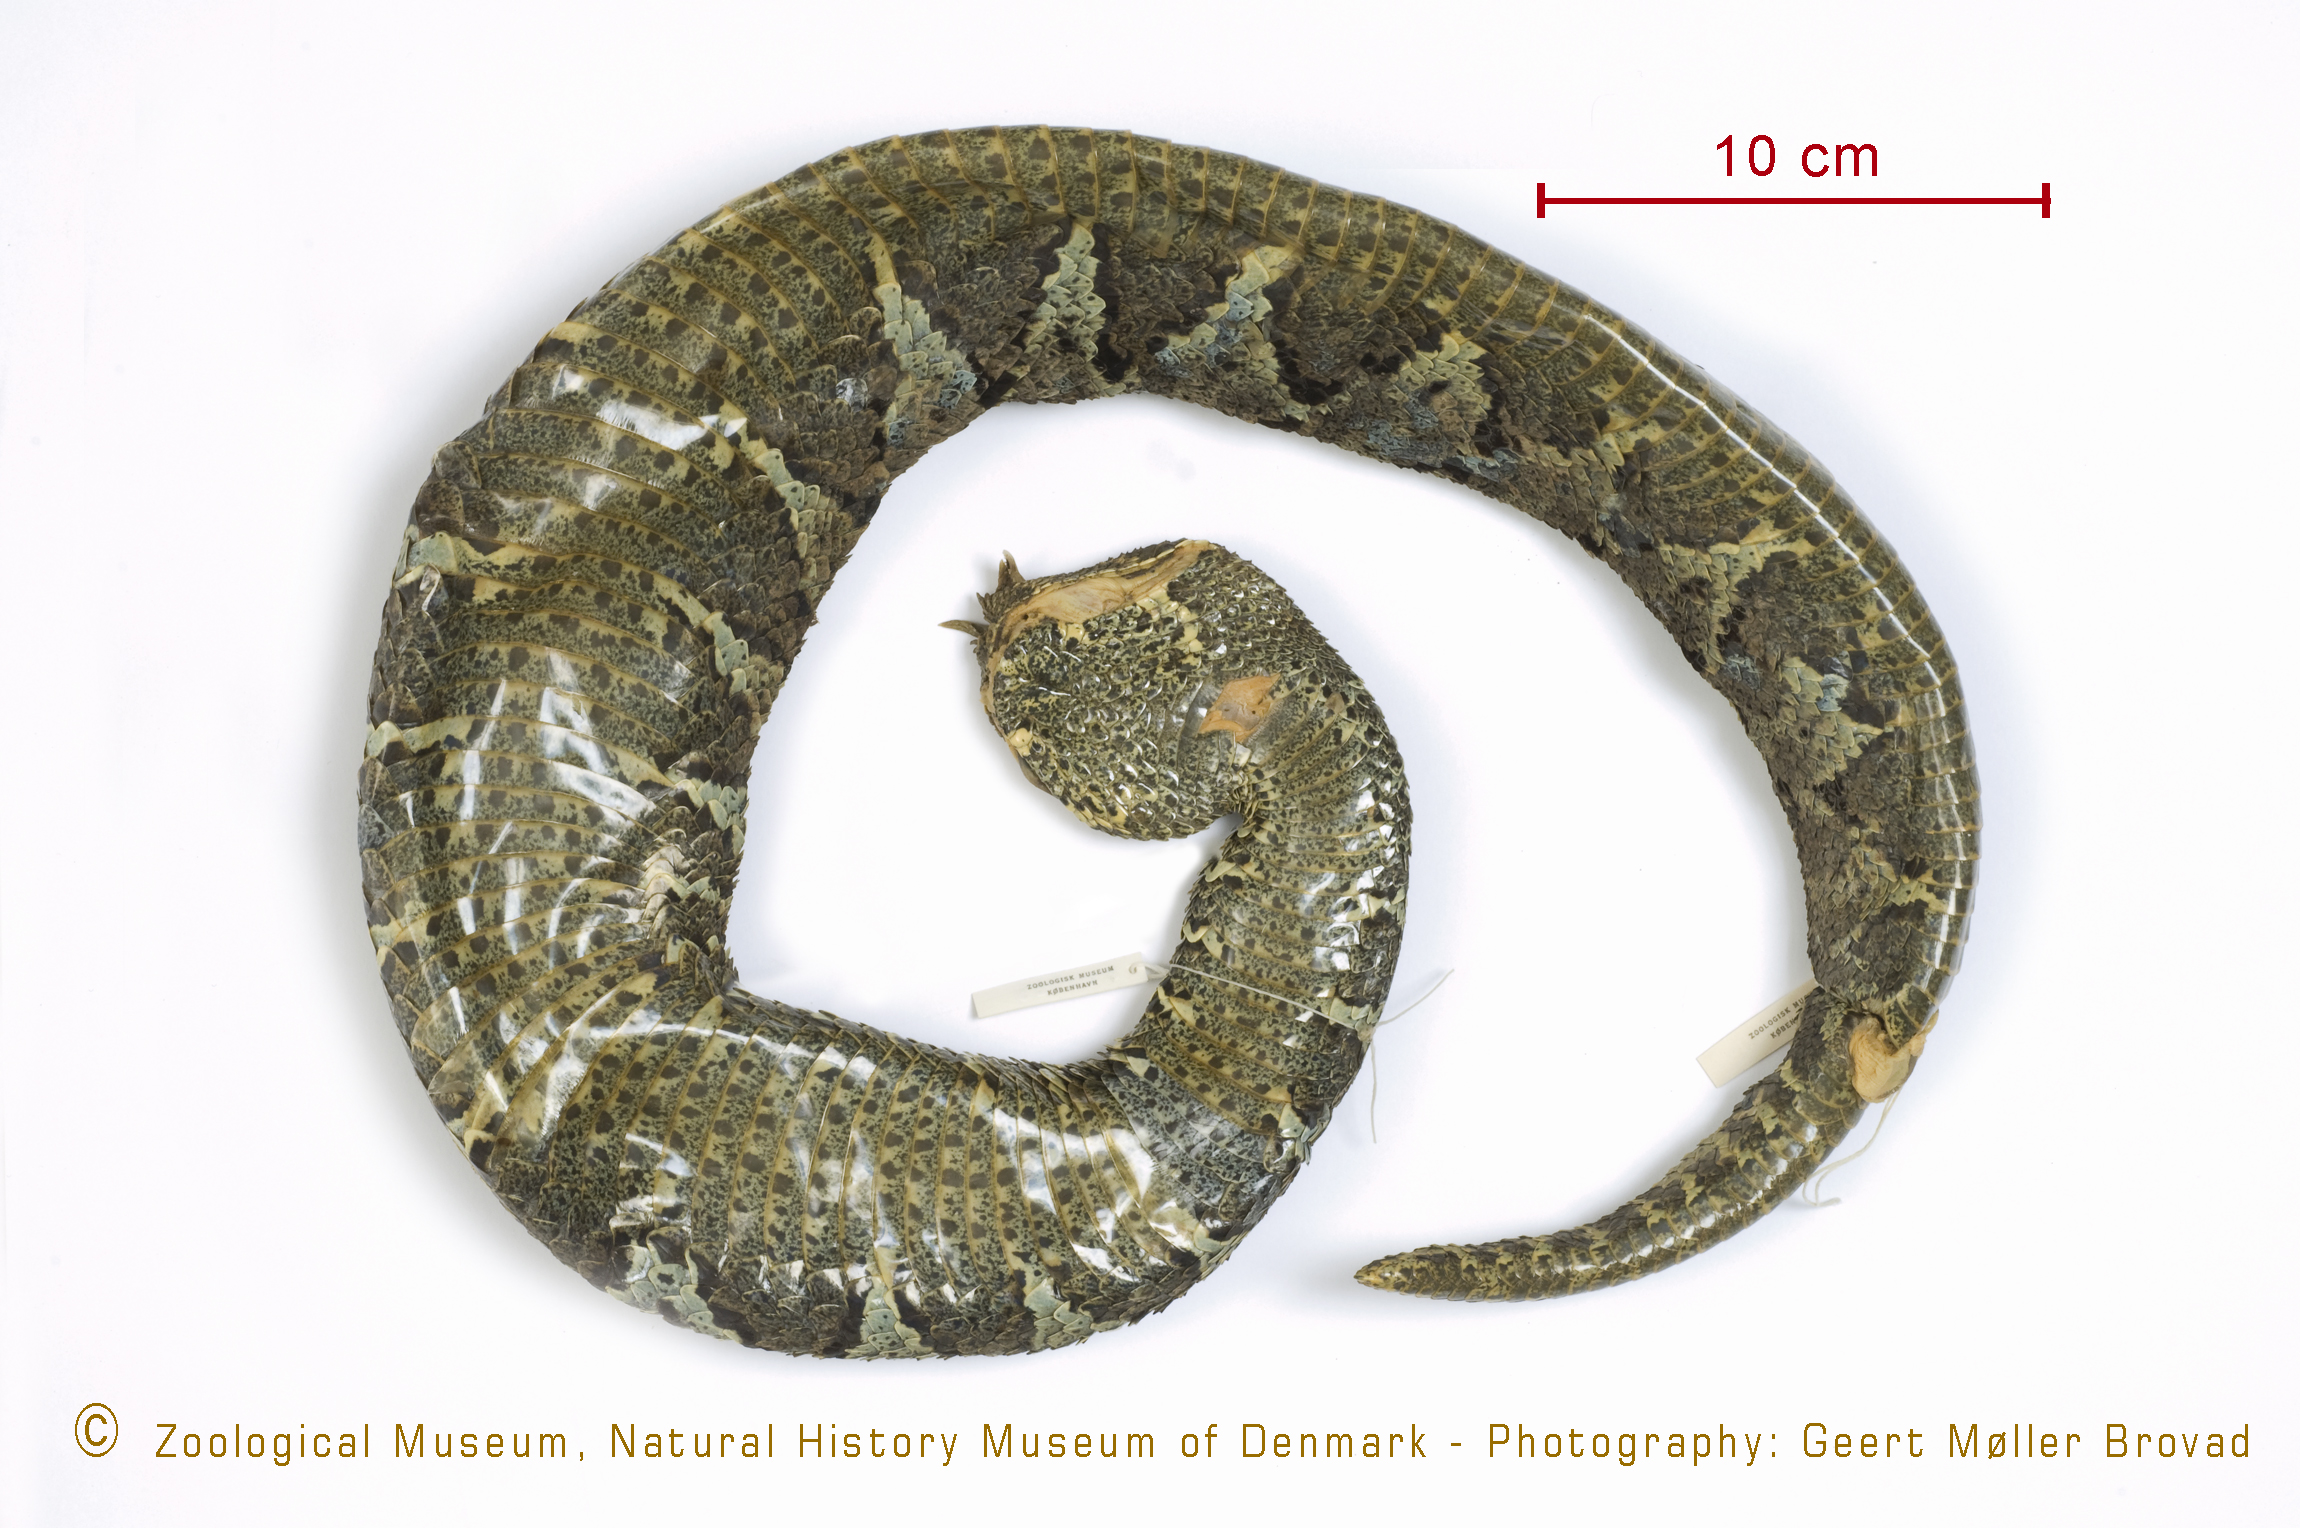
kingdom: Animalia
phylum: Chordata
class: Squamata
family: Viperidae
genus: Bitis
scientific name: Bitis nasicornis
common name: Rhinoceros viper
